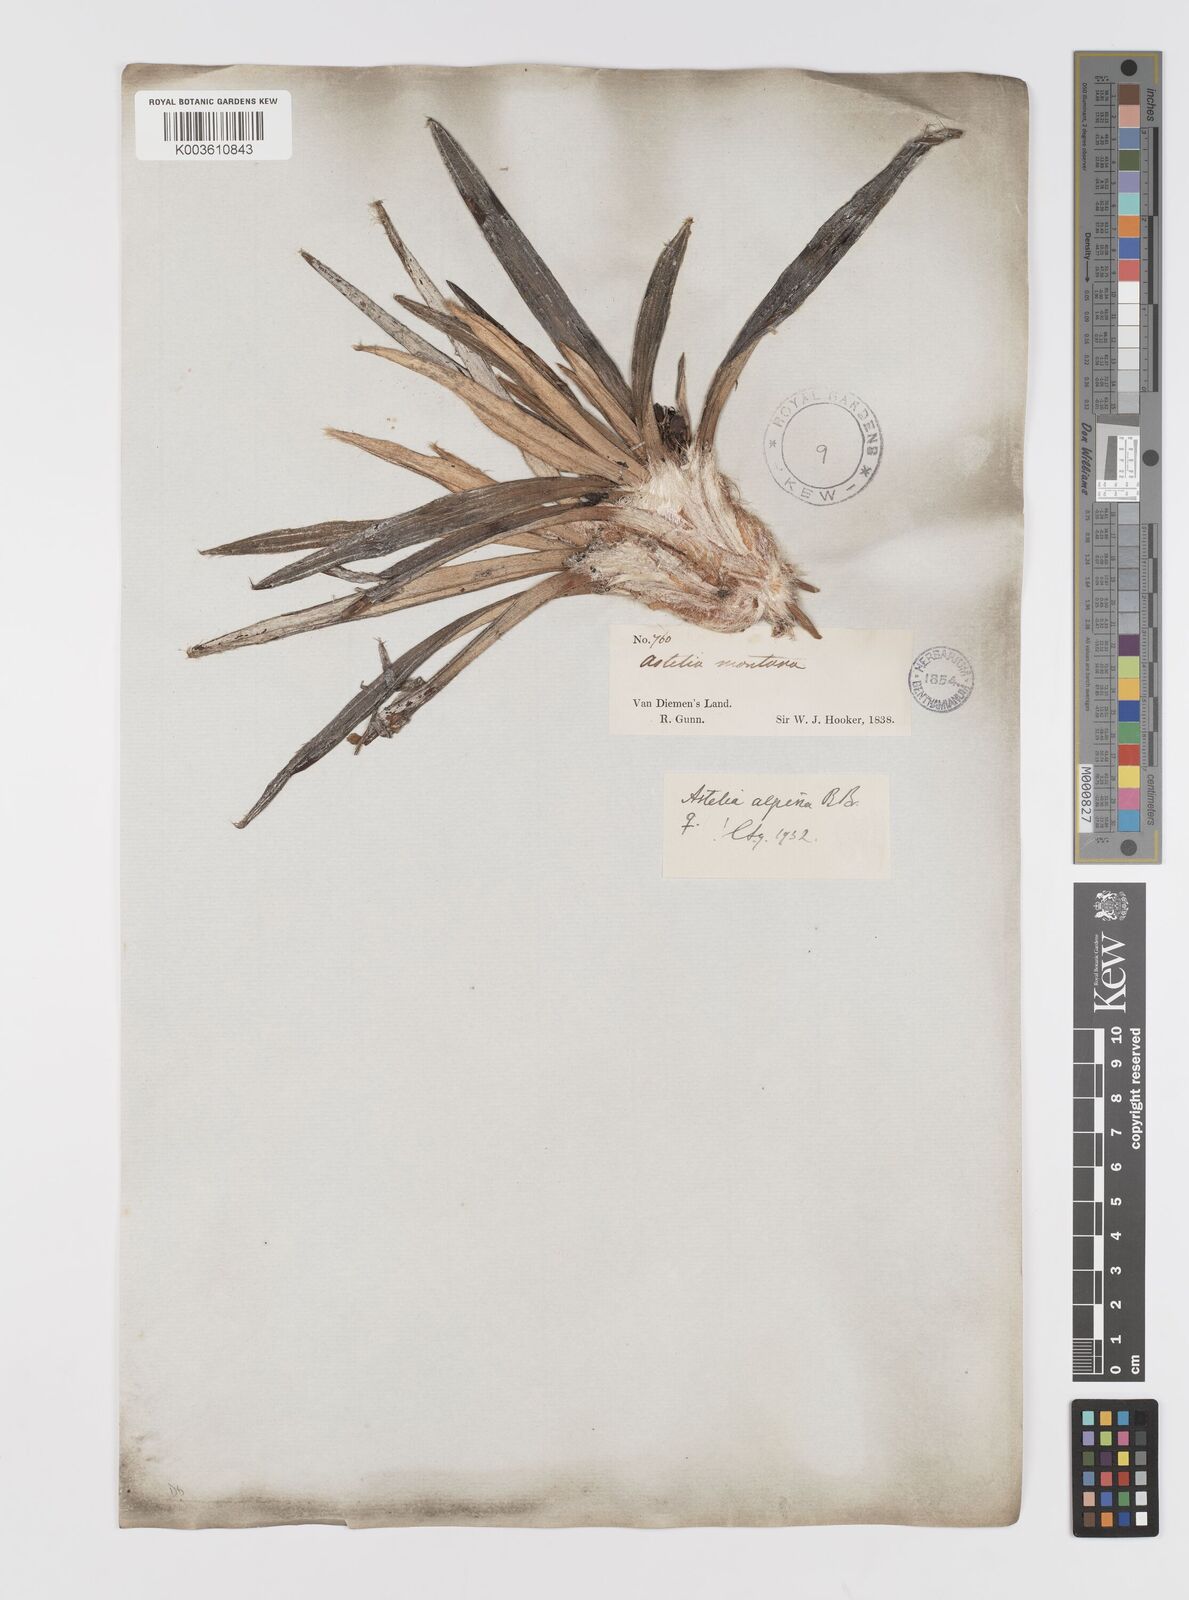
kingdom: Plantae
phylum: Tracheophyta
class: Liliopsida
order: Asparagales
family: Asteliaceae
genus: Astelia
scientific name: Astelia alpina
